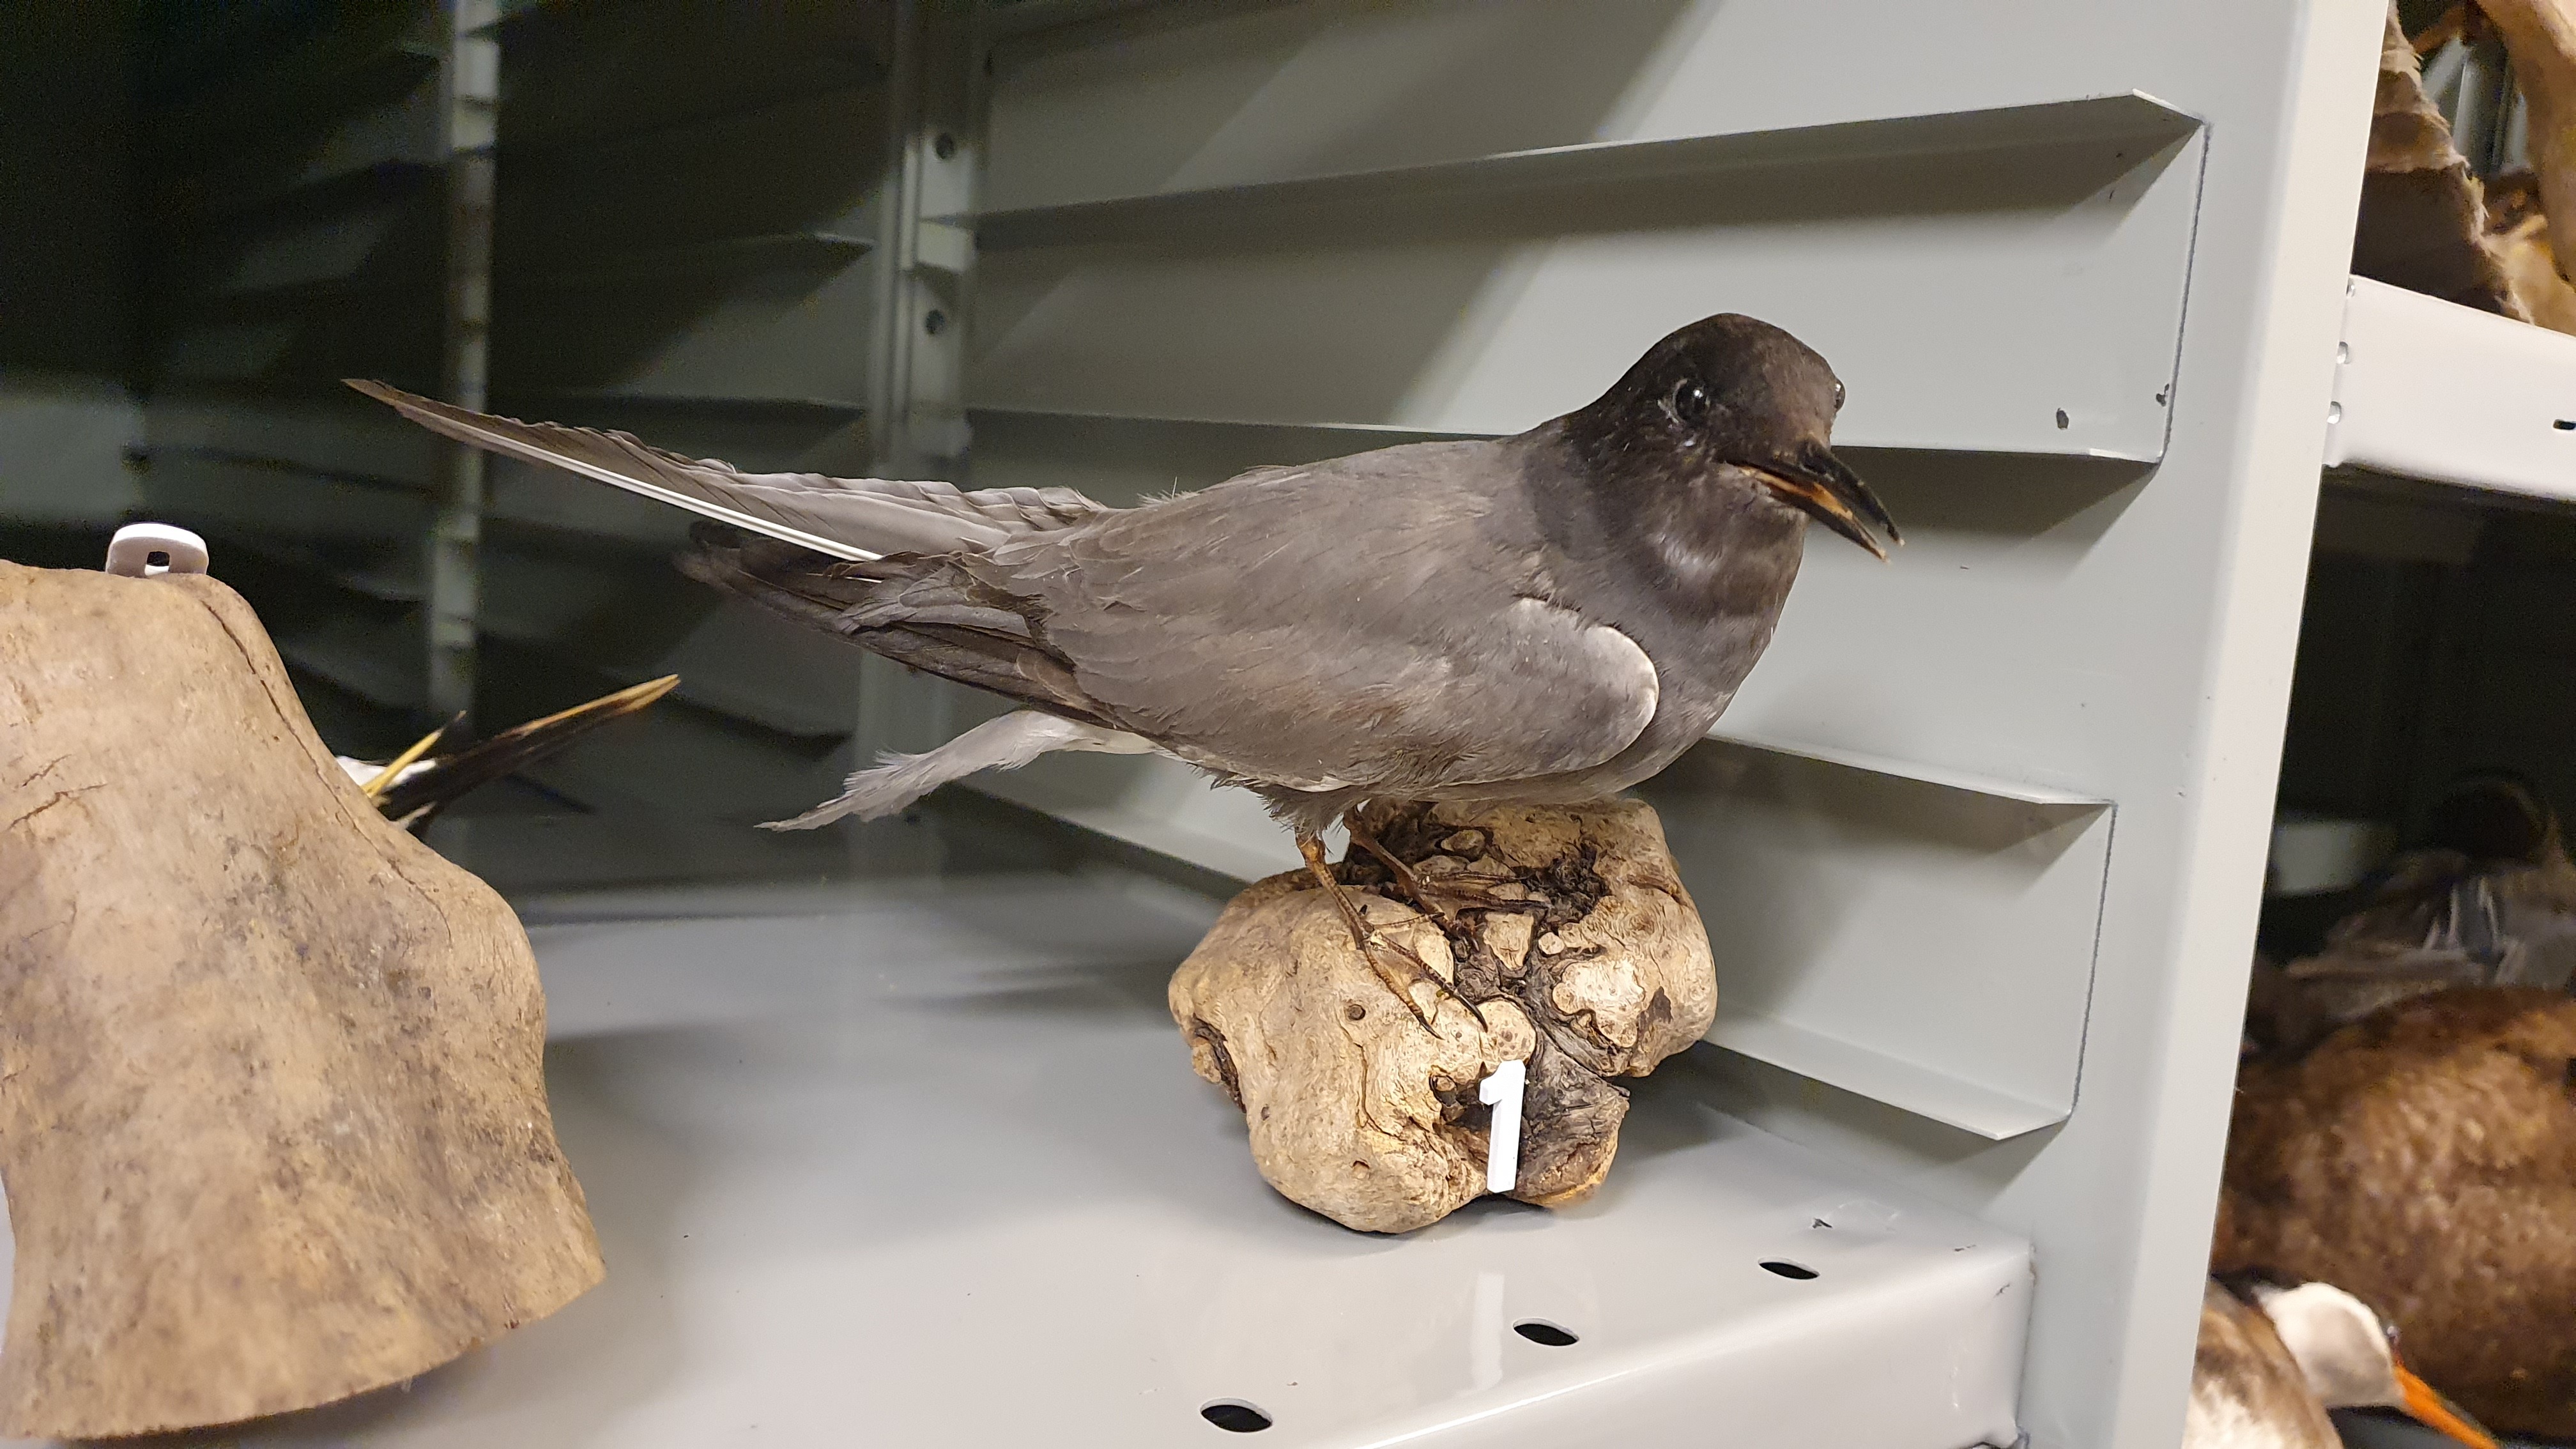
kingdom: Animalia
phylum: Chordata
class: Aves
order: Charadriiformes
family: Laridae
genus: Chlidonias
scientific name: Chlidonias niger
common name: Black tern
